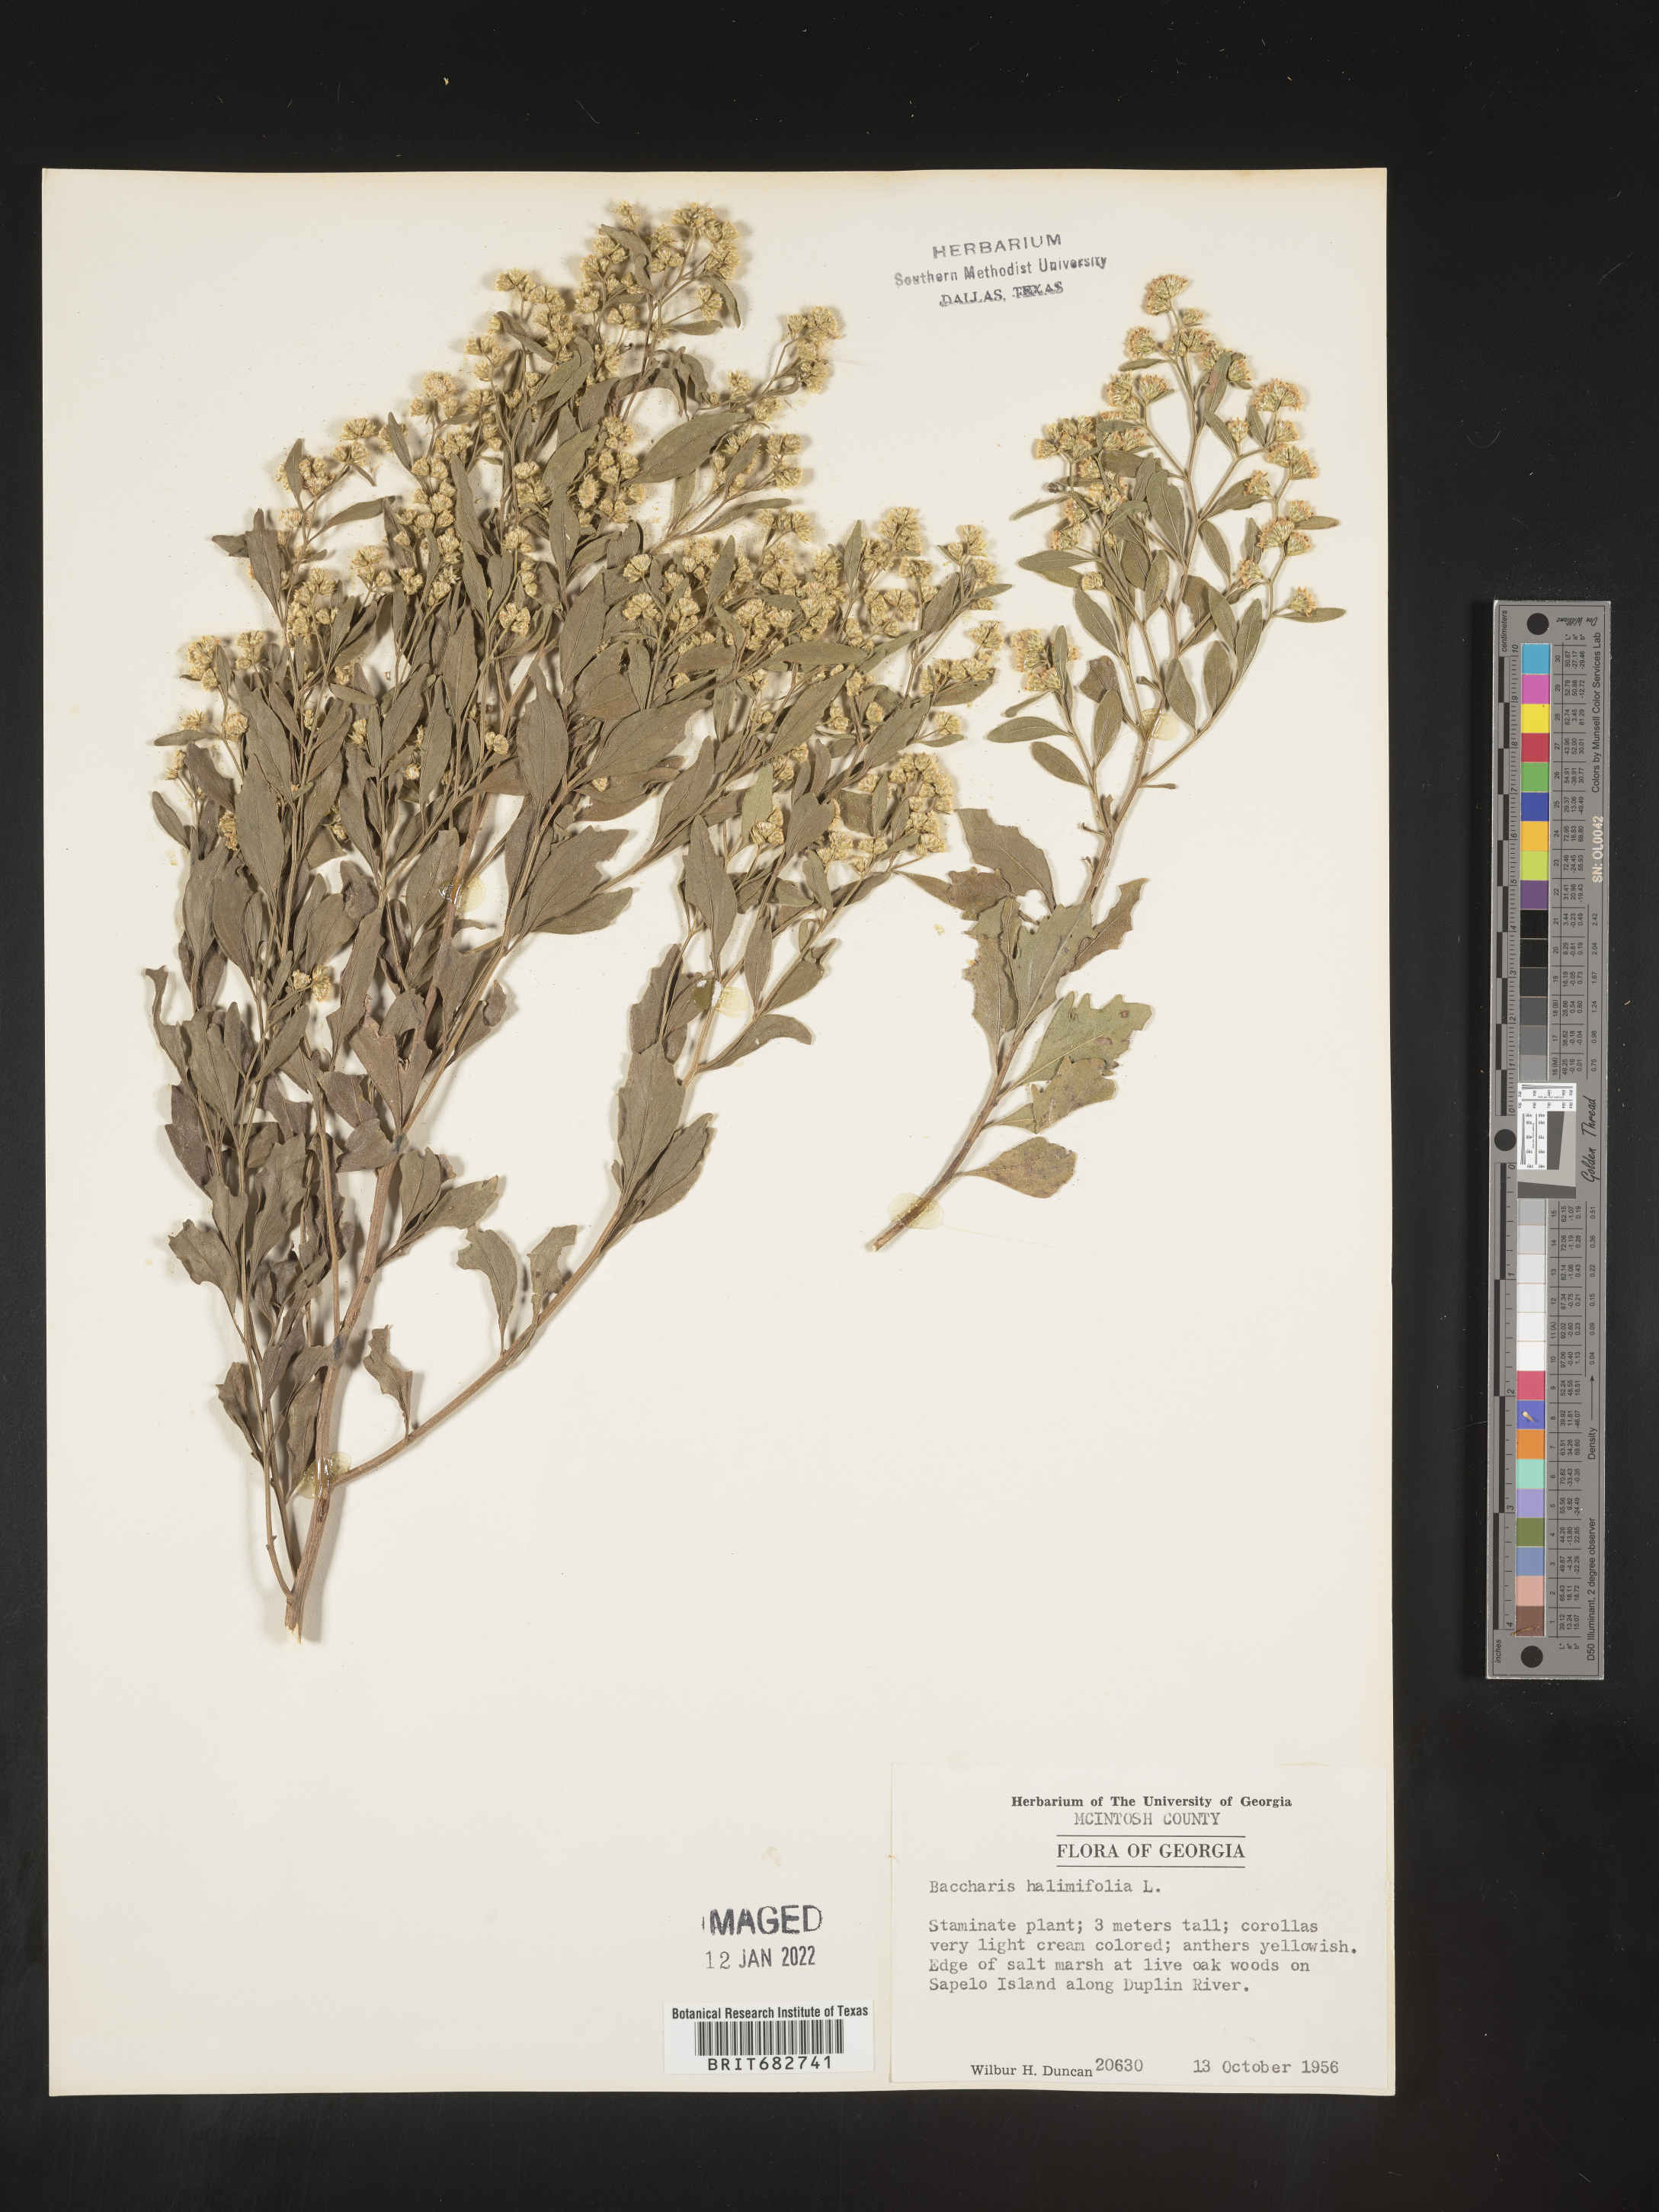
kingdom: Plantae
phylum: Tracheophyta
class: Magnoliopsida
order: Asterales
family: Asteraceae
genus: Nidorella
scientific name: Nidorella ivifolia
